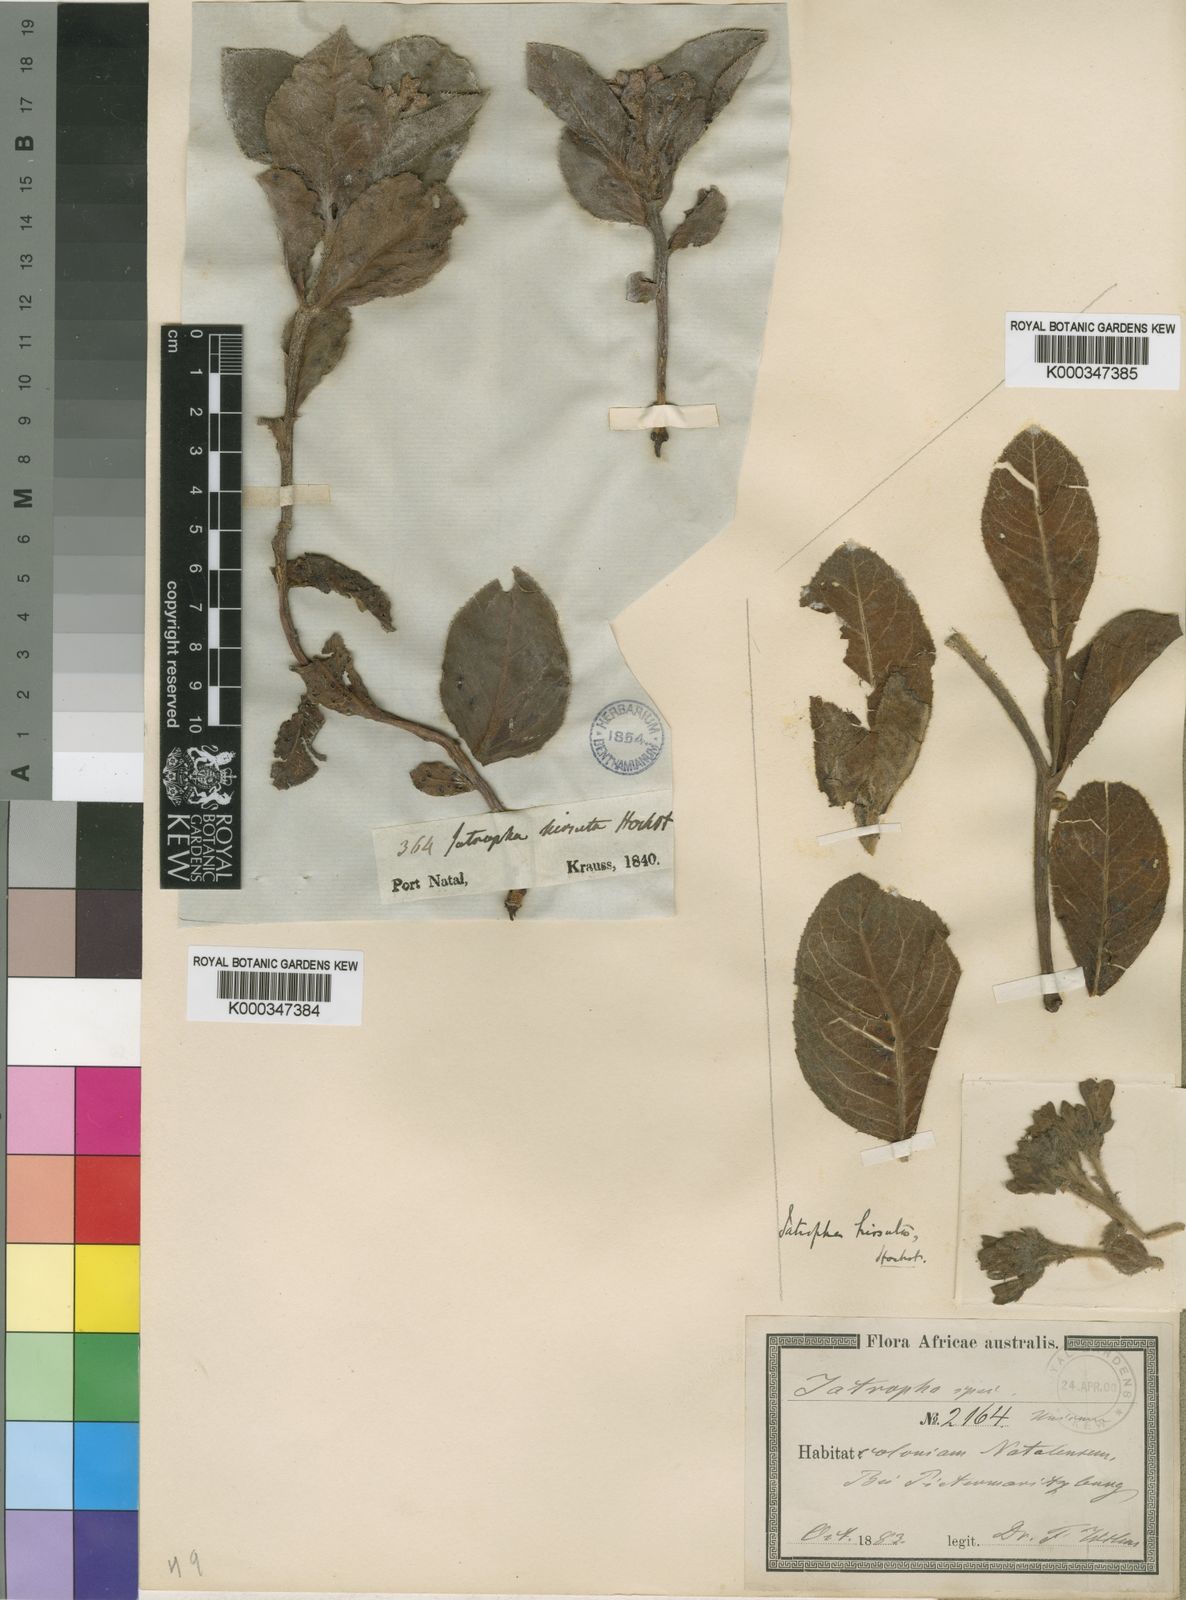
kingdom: Plantae
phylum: Tracheophyta
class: Magnoliopsida
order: Malpighiales
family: Euphorbiaceae
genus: Jatropha
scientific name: Jatropha hirsuta
